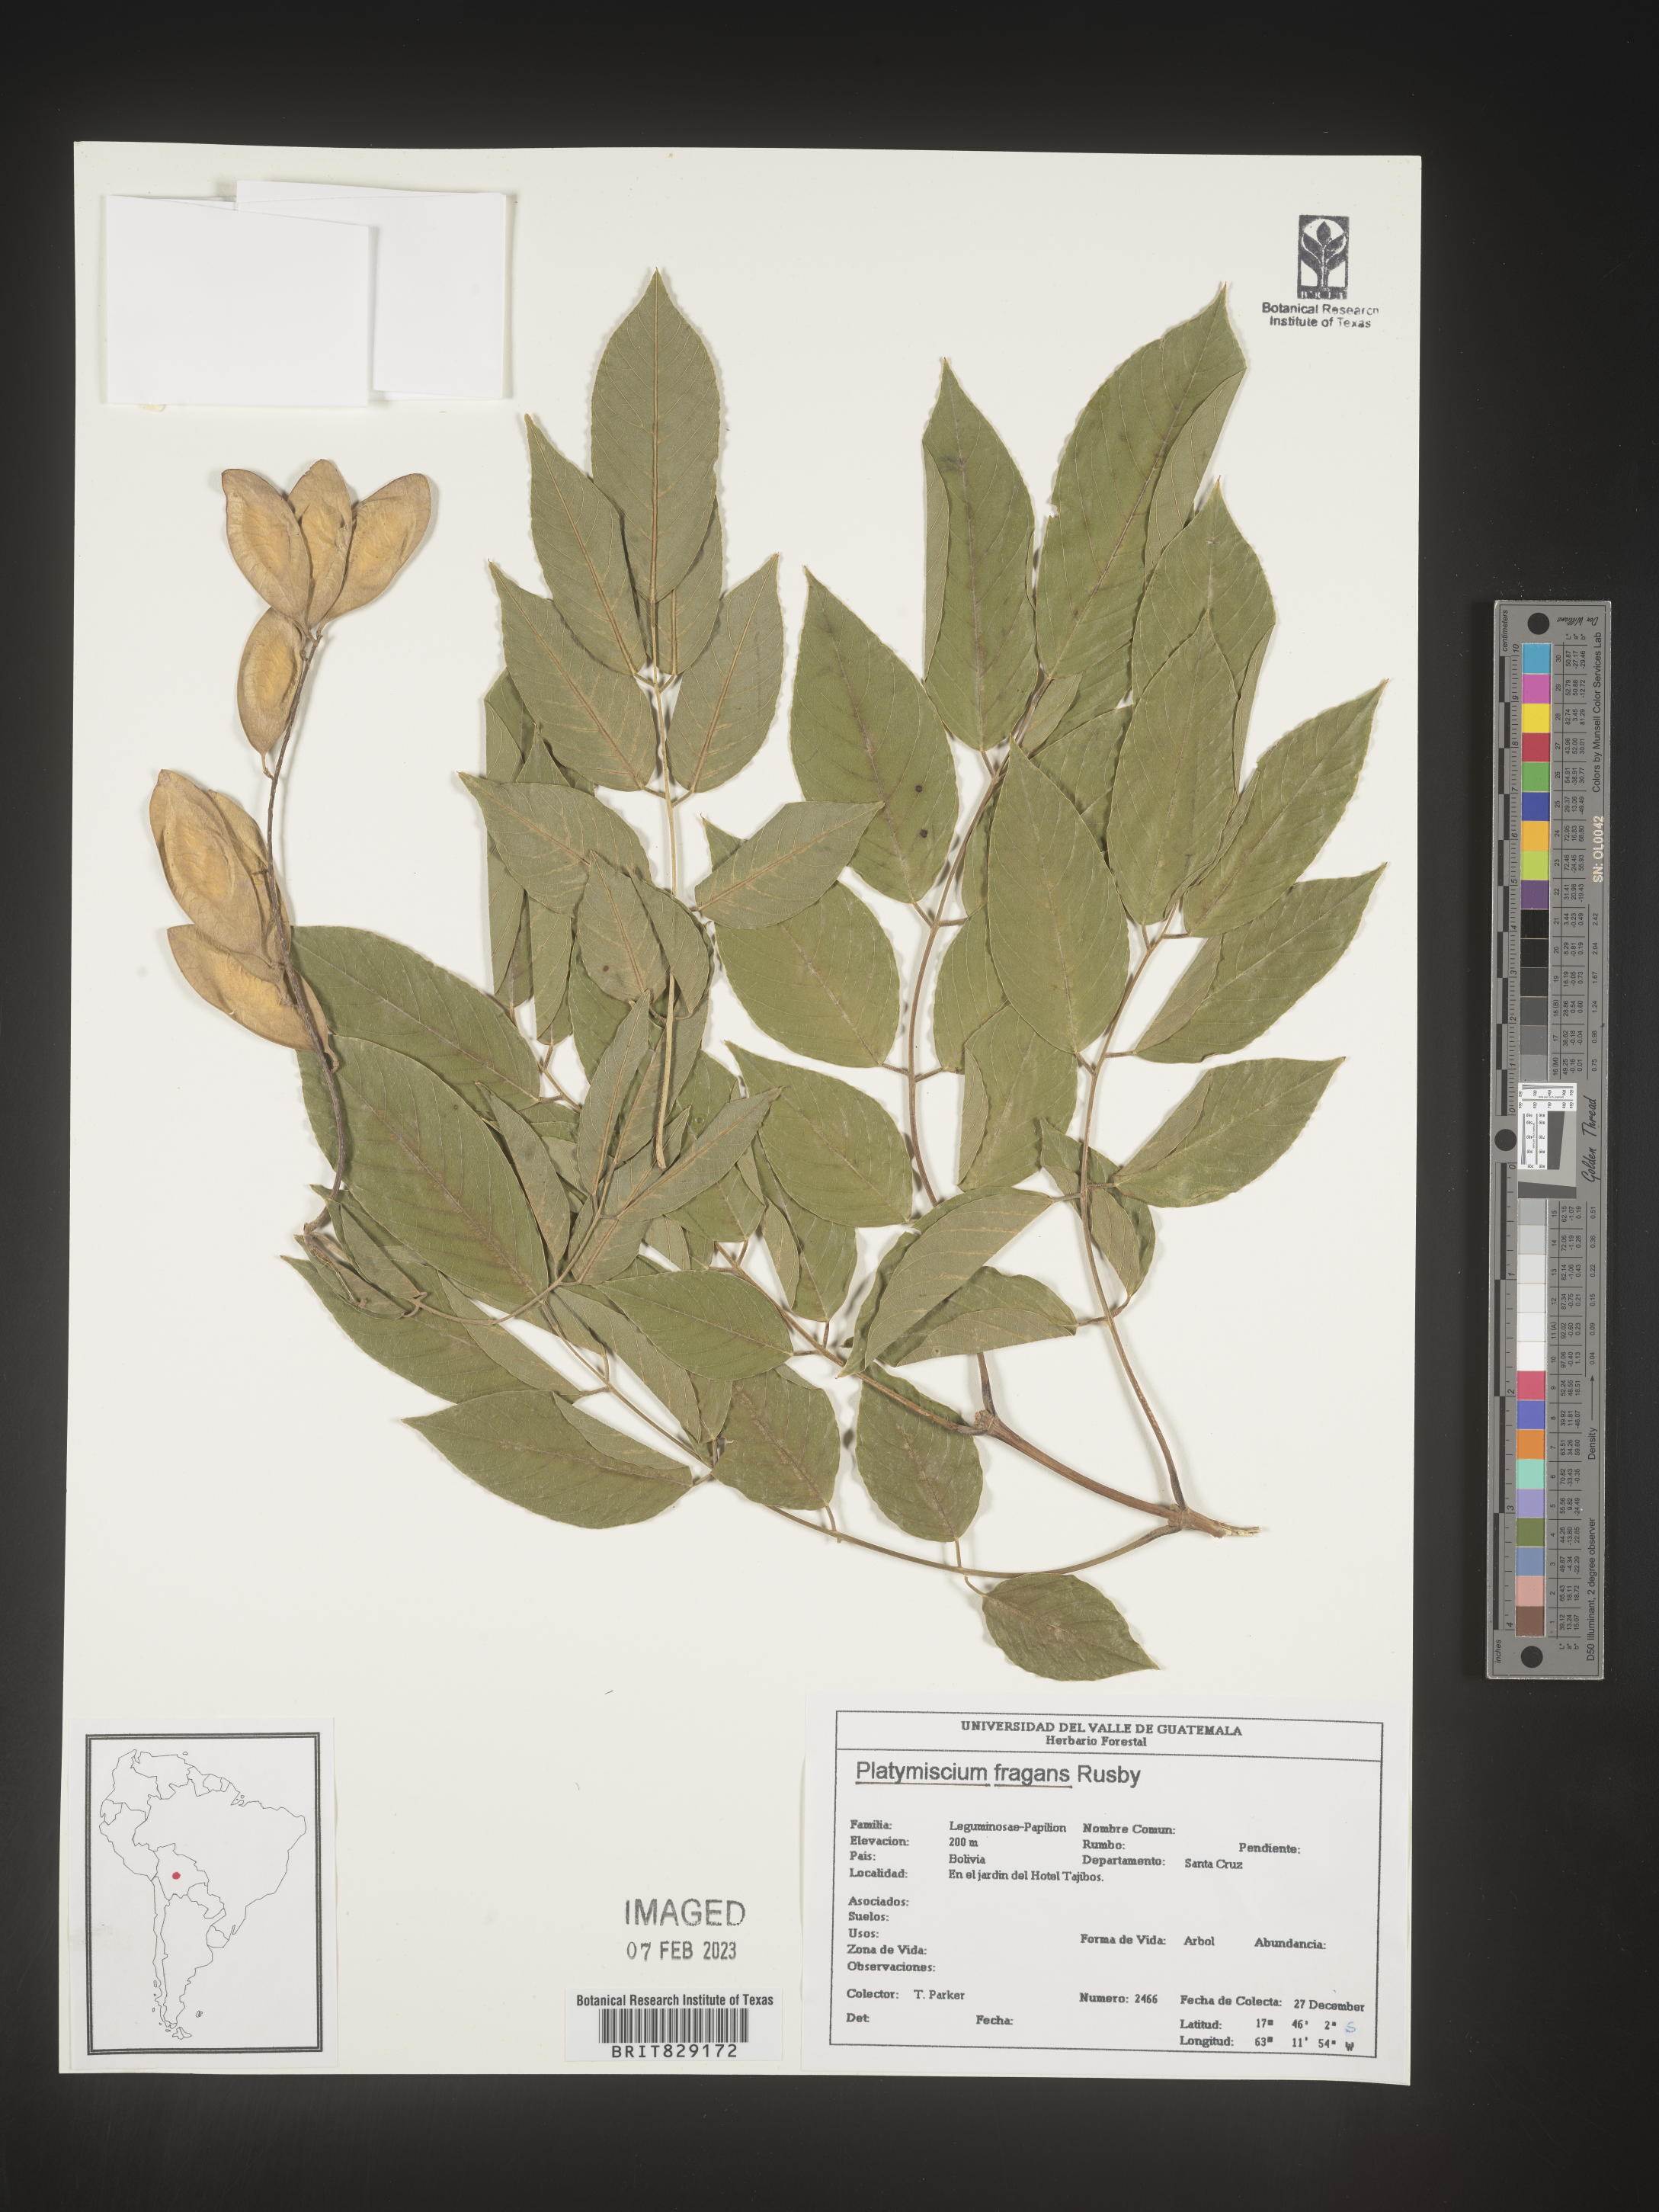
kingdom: Plantae
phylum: Tracheophyta
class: Magnoliopsida
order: Fabales
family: Fabaceae
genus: Platymiscium
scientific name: Platymiscium
